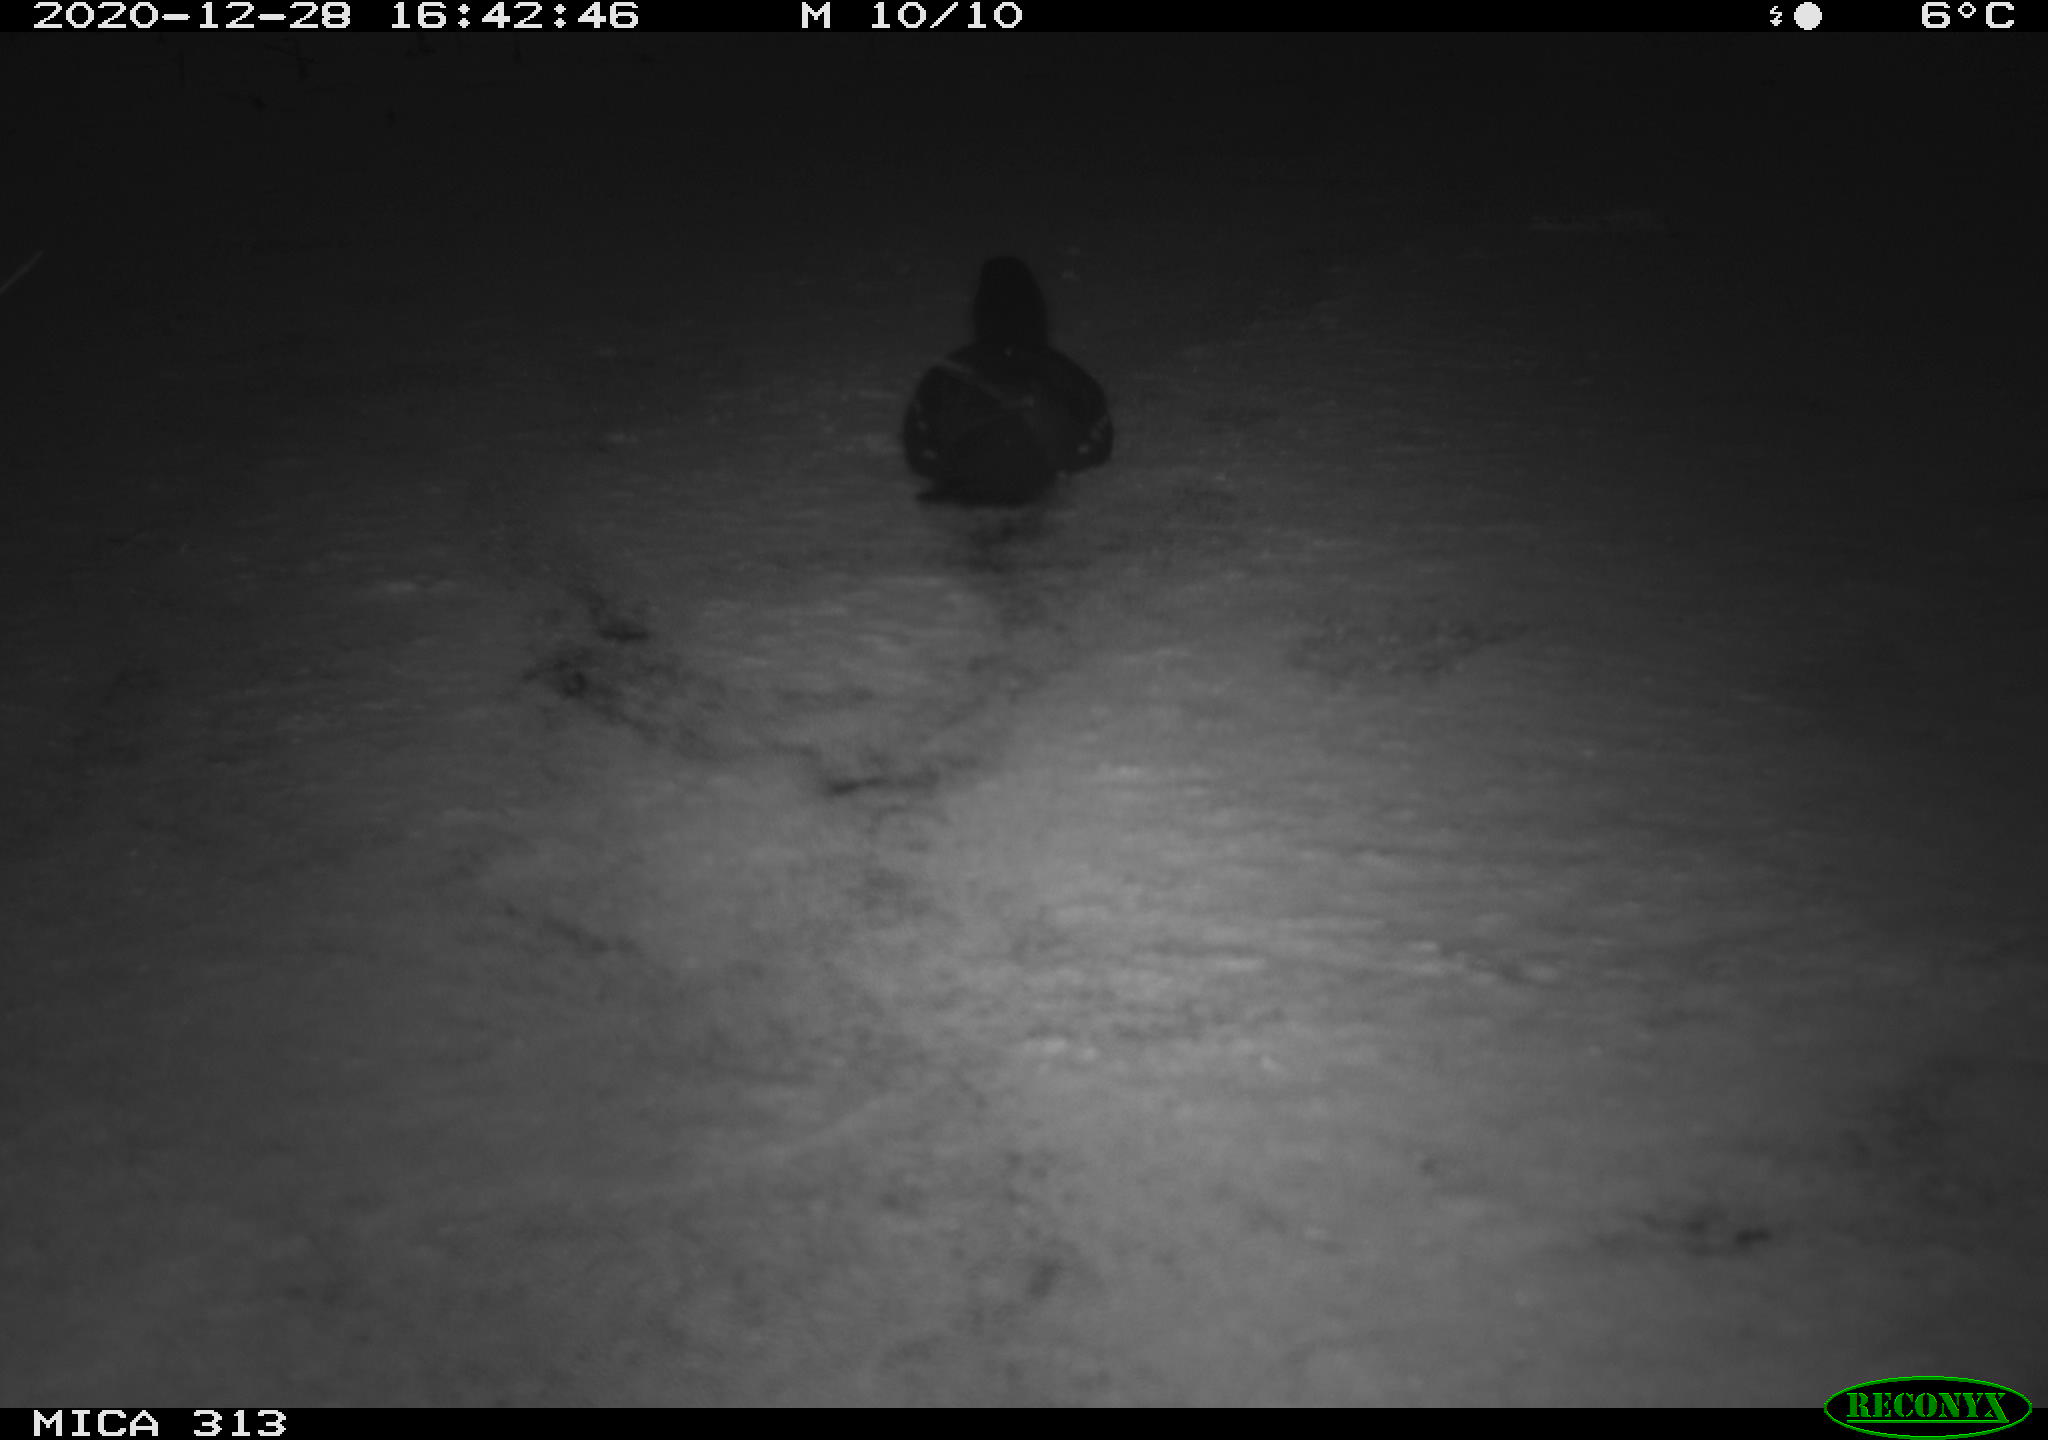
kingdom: Animalia
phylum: Chordata
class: Aves
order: Gruiformes
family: Rallidae
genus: Gallinula
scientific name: Gallinula chloropus
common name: Common moorhen
